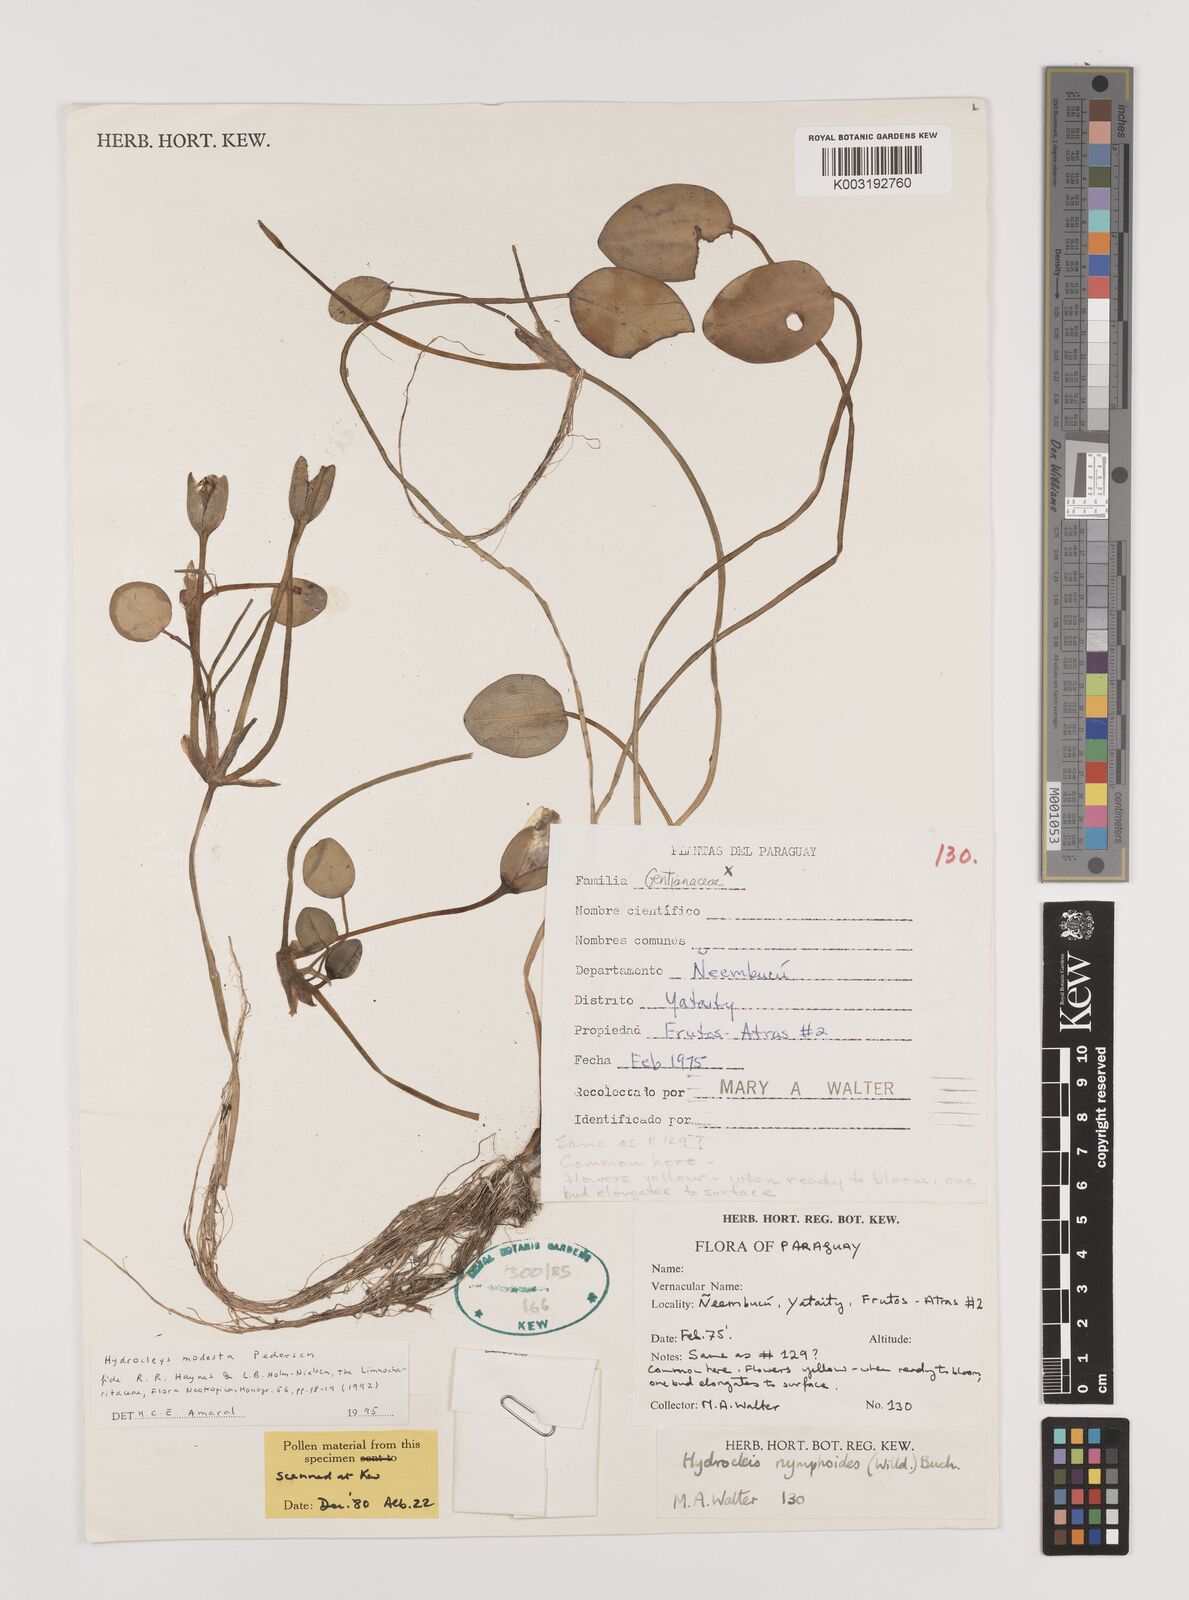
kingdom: Plantae
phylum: Tracheophyta
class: Liliopsida
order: Alismatales
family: Alismataceae
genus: Hydrocleys
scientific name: Hydrocleys modesta
